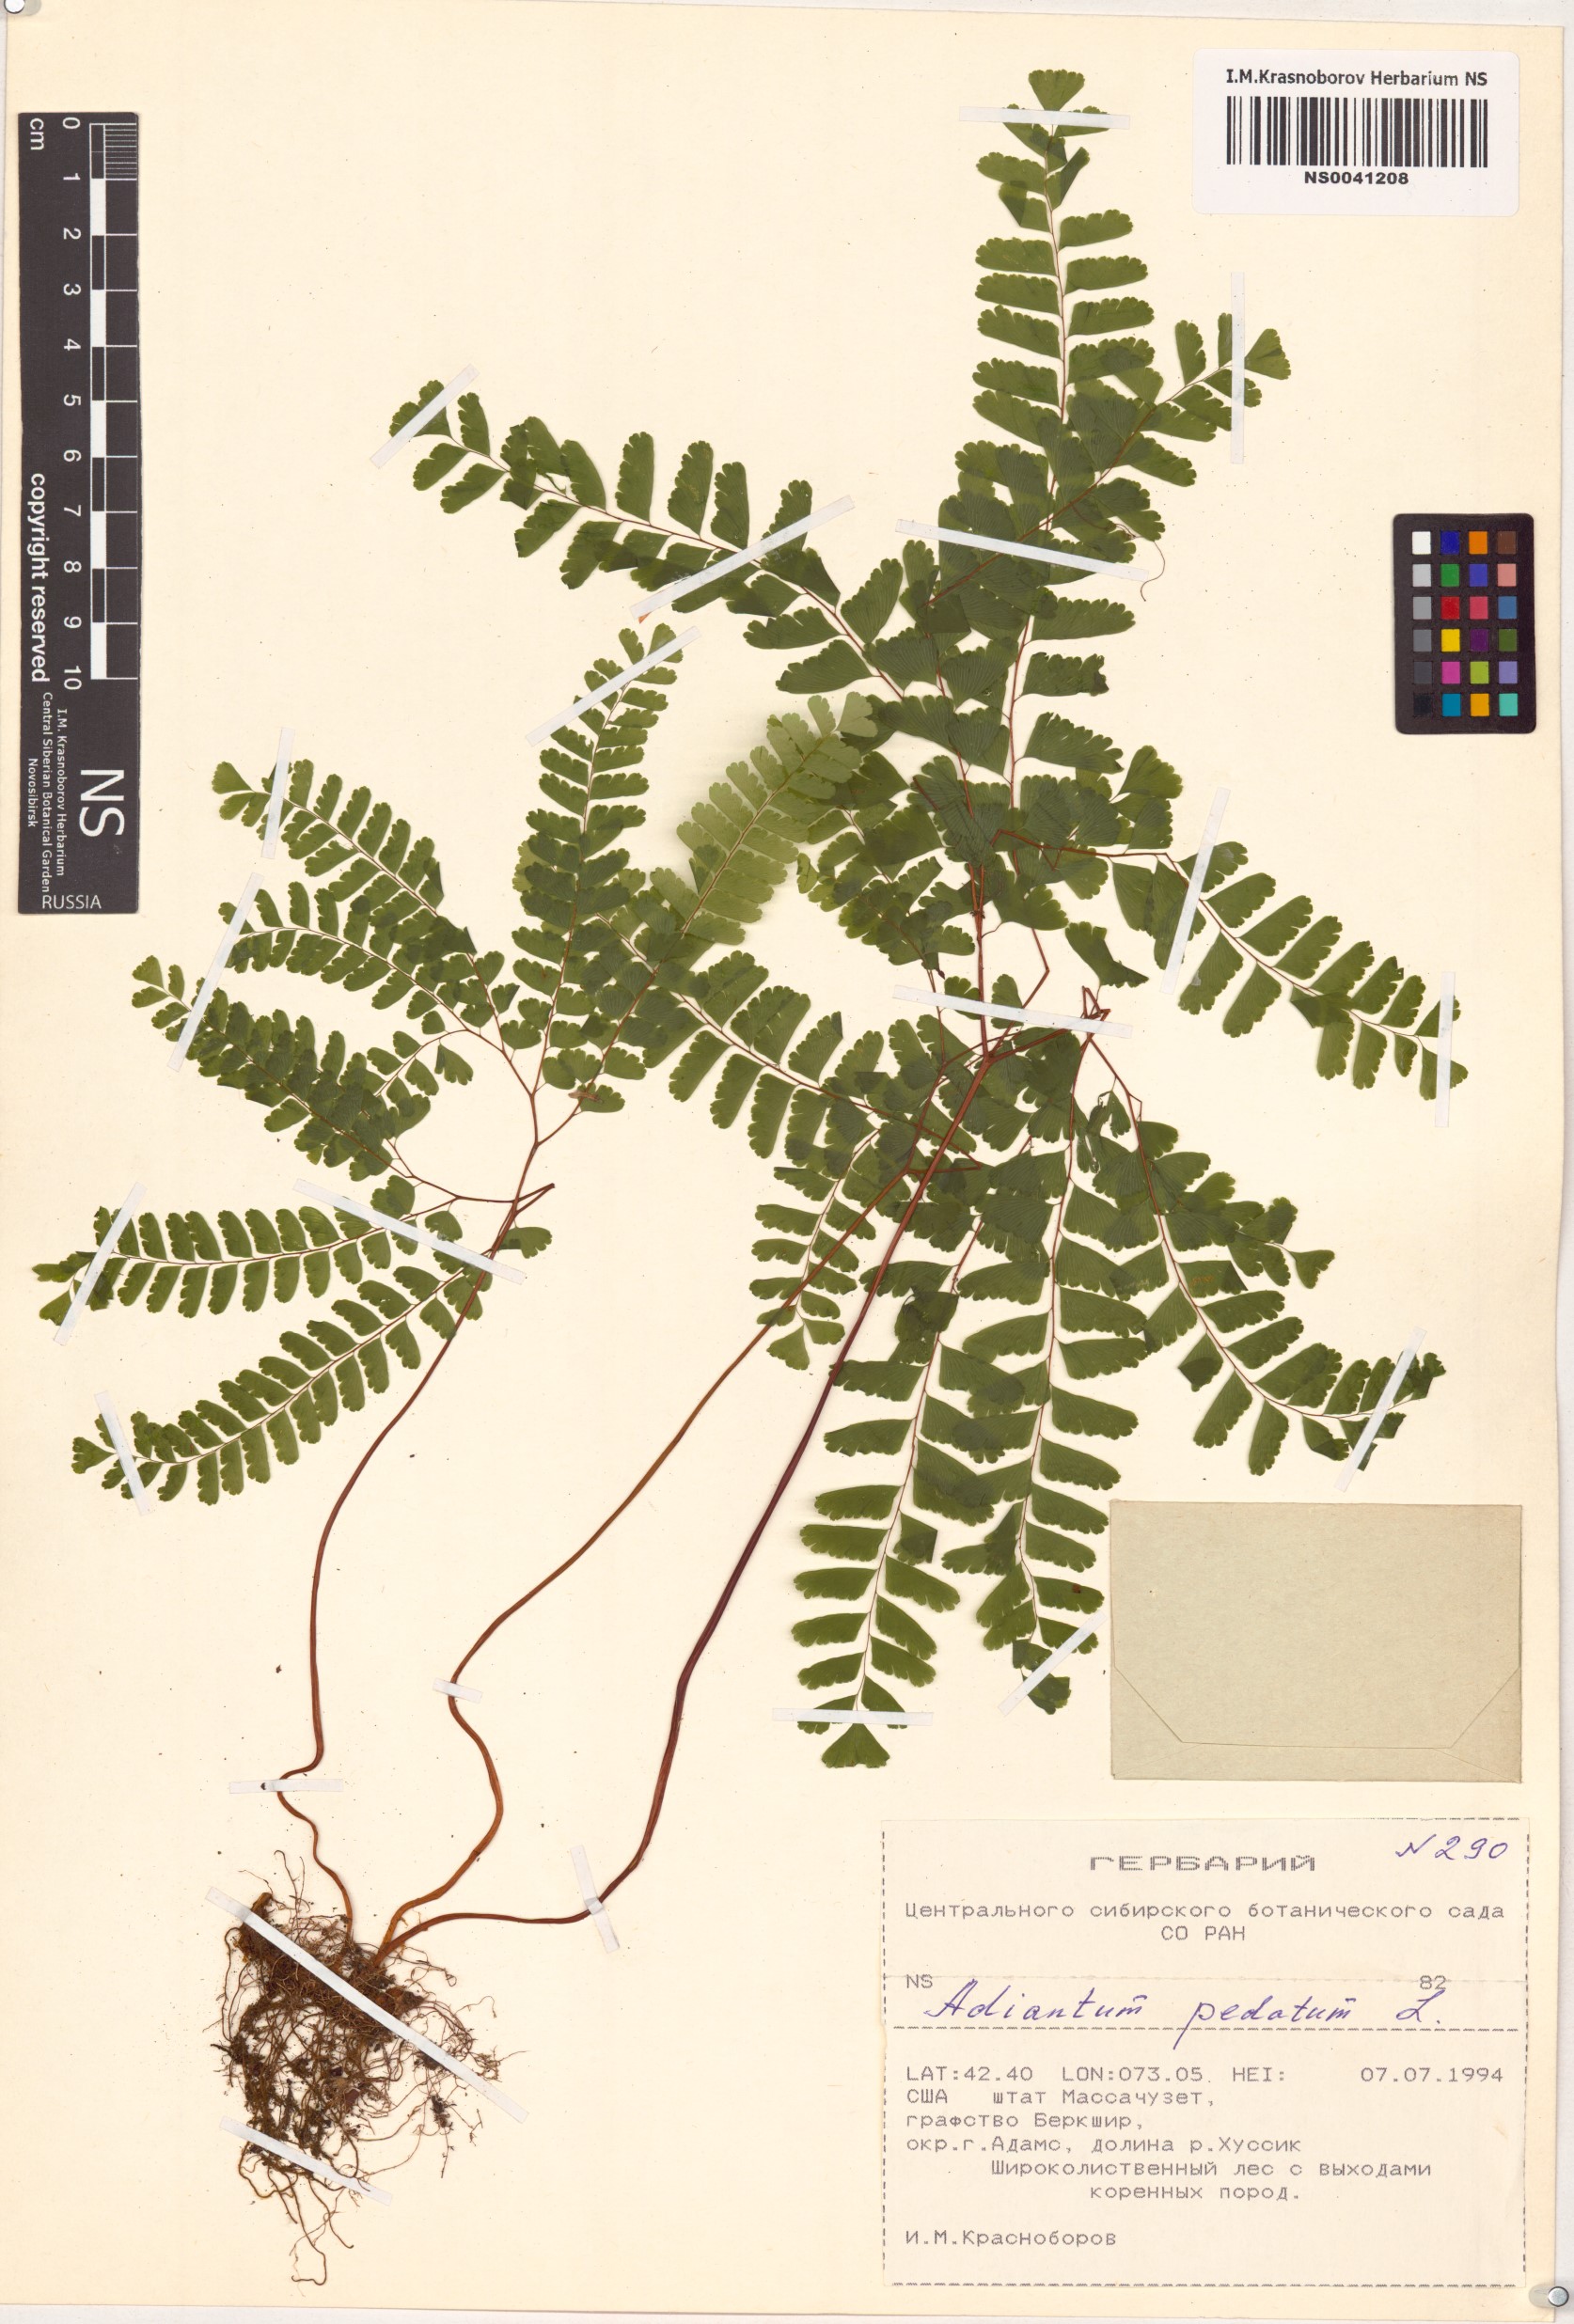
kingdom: Plantae
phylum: Tracheophyta
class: Polypodiopsida
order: Polypodiales
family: Pteridaceae
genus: Adiantum
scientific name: Adiantum pedatum
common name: Five-finger fern
